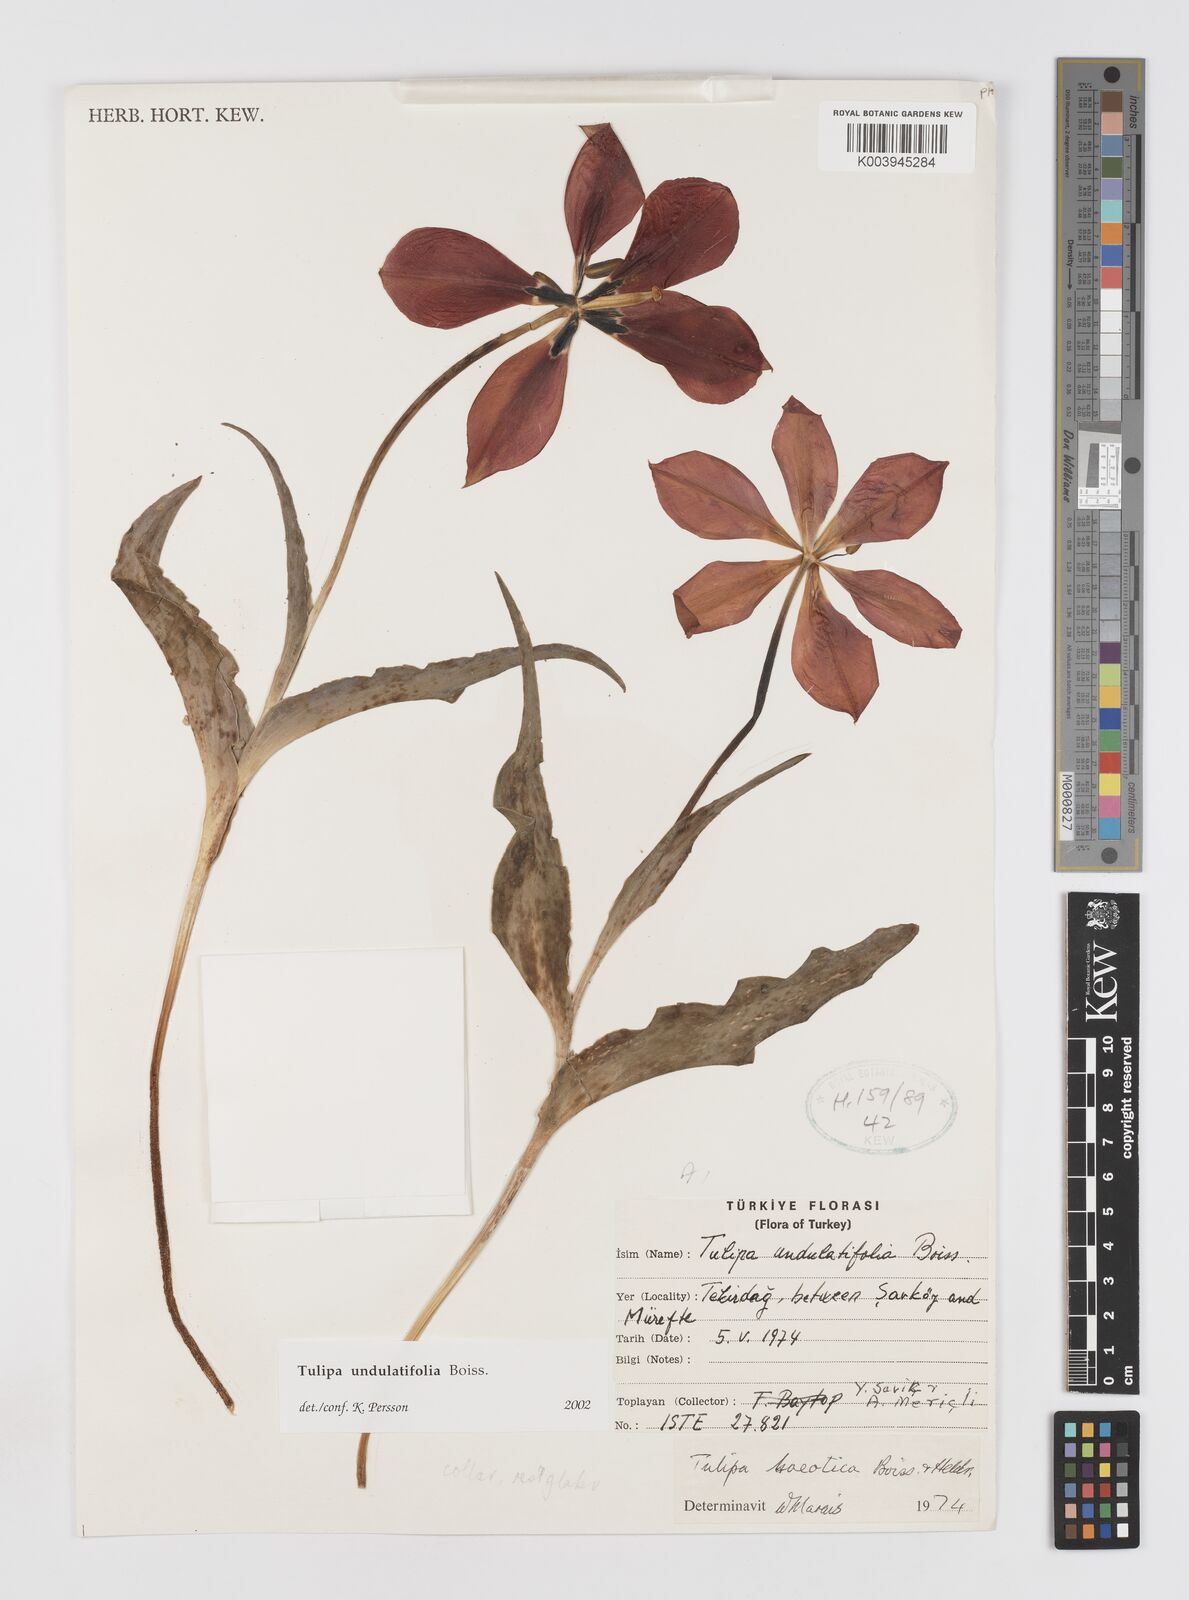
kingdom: Plantae
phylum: Tracheophyta
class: Liliopsida
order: Liliales
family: Liliaceae
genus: Tulipa
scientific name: Tulipa undulatifolia
